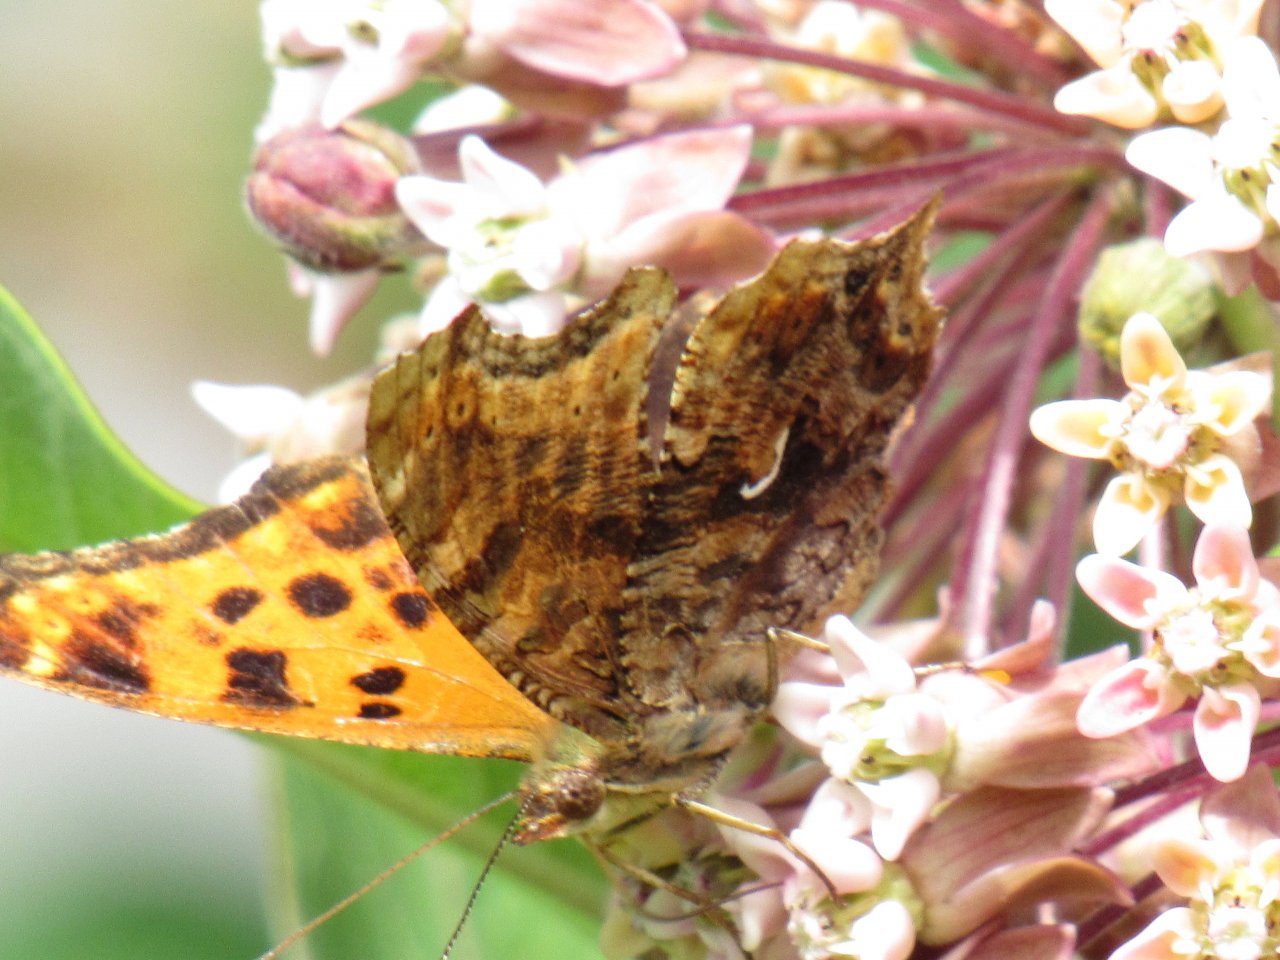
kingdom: Animalia
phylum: Arthropoda
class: Insecta
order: Lepidoptera
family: Nymphalidae
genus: Polygonia
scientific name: Polygonia comma
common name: Eastern Comma
